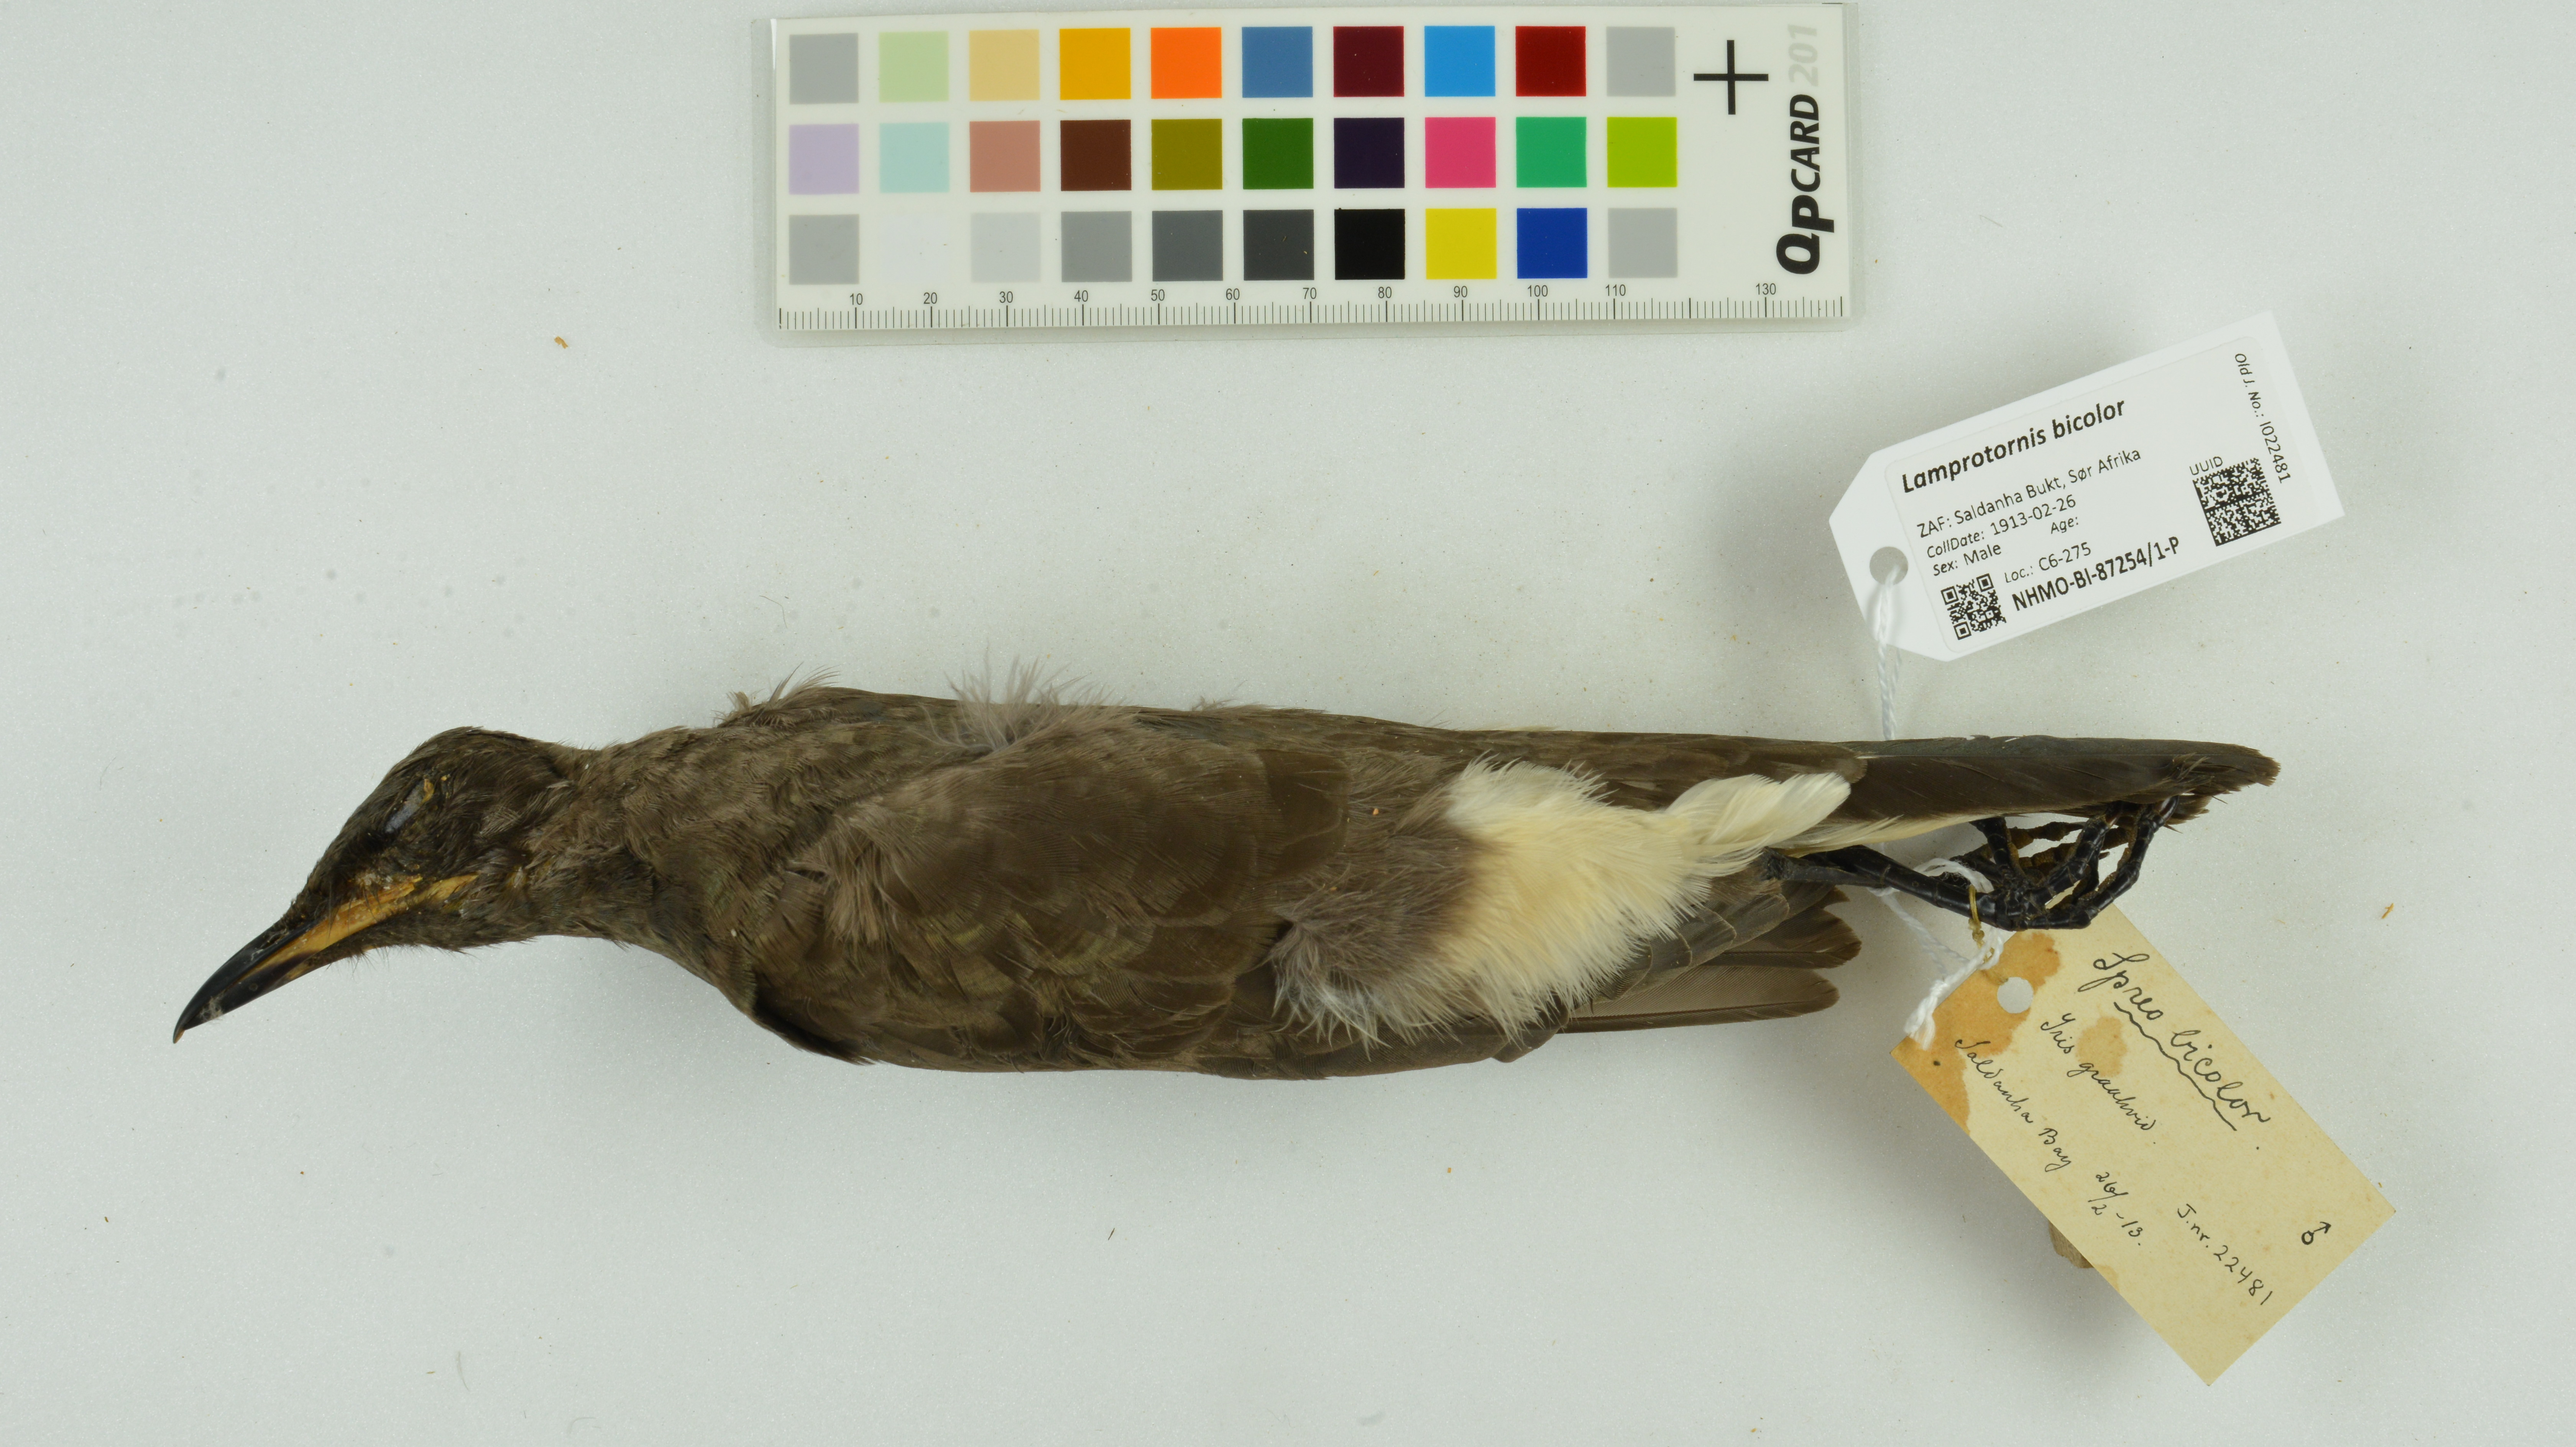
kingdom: Animalia
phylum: Chordata
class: Aves
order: Passeriformes
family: Sturnidae
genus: Lamprotornis
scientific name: Lamprotornis bicolor
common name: Pied starling
